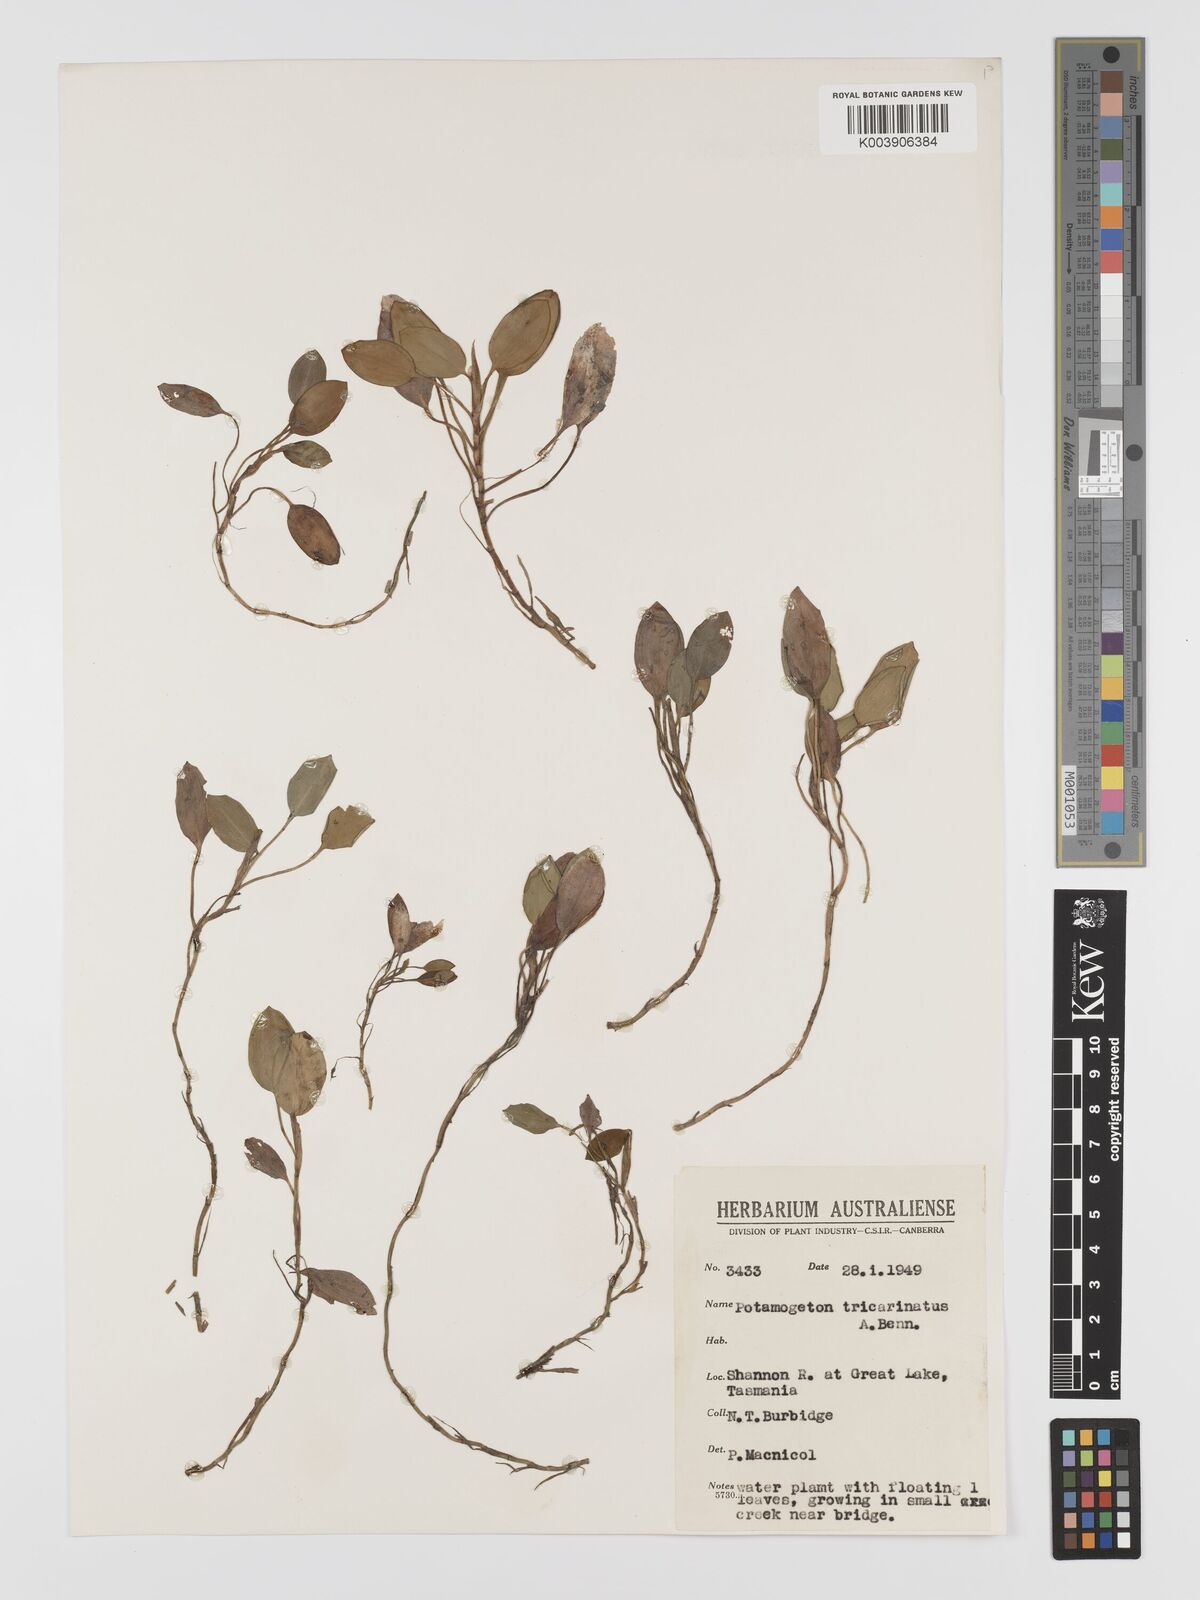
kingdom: Plantae
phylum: Tracheophyta
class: Liliopsida
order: Alismatales
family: Potamogetonaceae
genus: Potamogeton
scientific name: Potamogeton tricarinatus
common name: Pondweed
